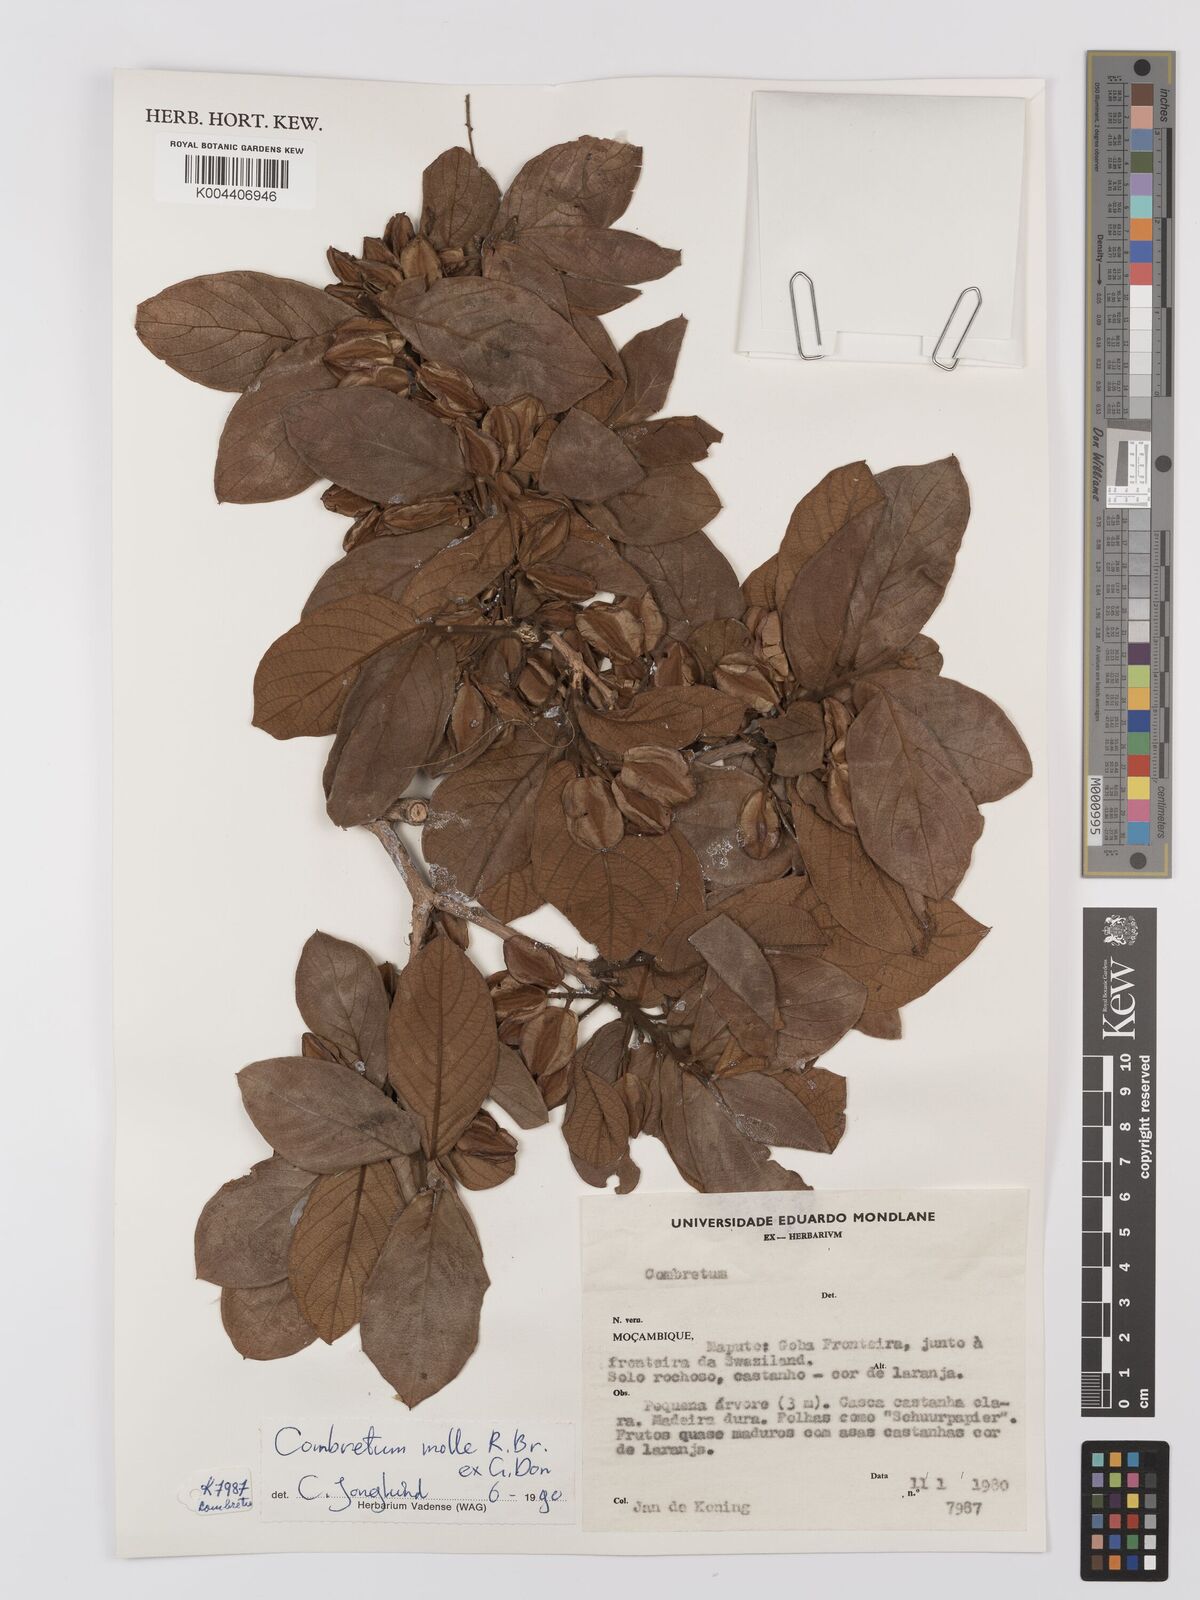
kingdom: Plantae
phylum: Tracheophyta
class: Magnoliopsida
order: Myrtales
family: Combretaceae
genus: Combretum
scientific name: Combretum
